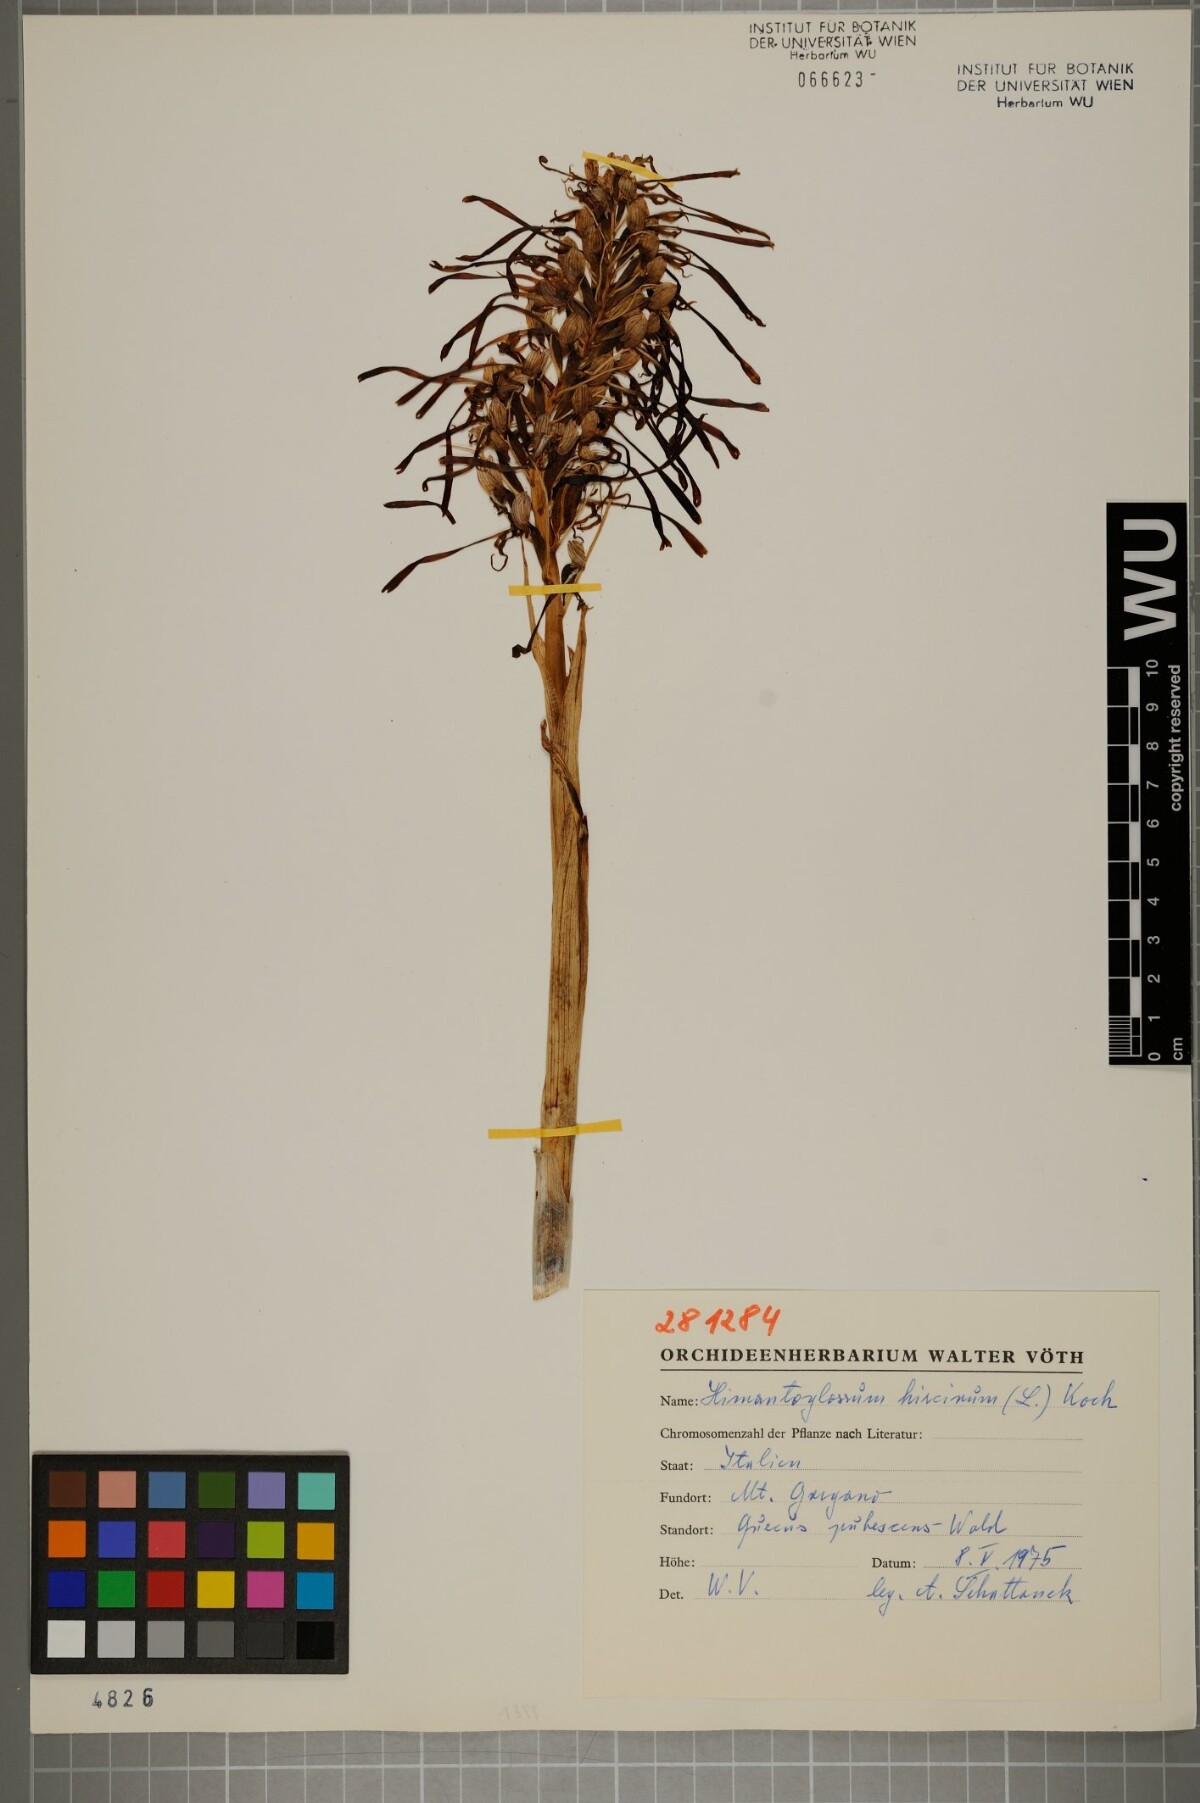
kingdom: Plantae
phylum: Tracheophyta
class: Liliopsida
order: Asparagales
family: Orchidaceae
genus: Himantoglossum
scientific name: Himantoglossum hircinum
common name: Lizard orchid
